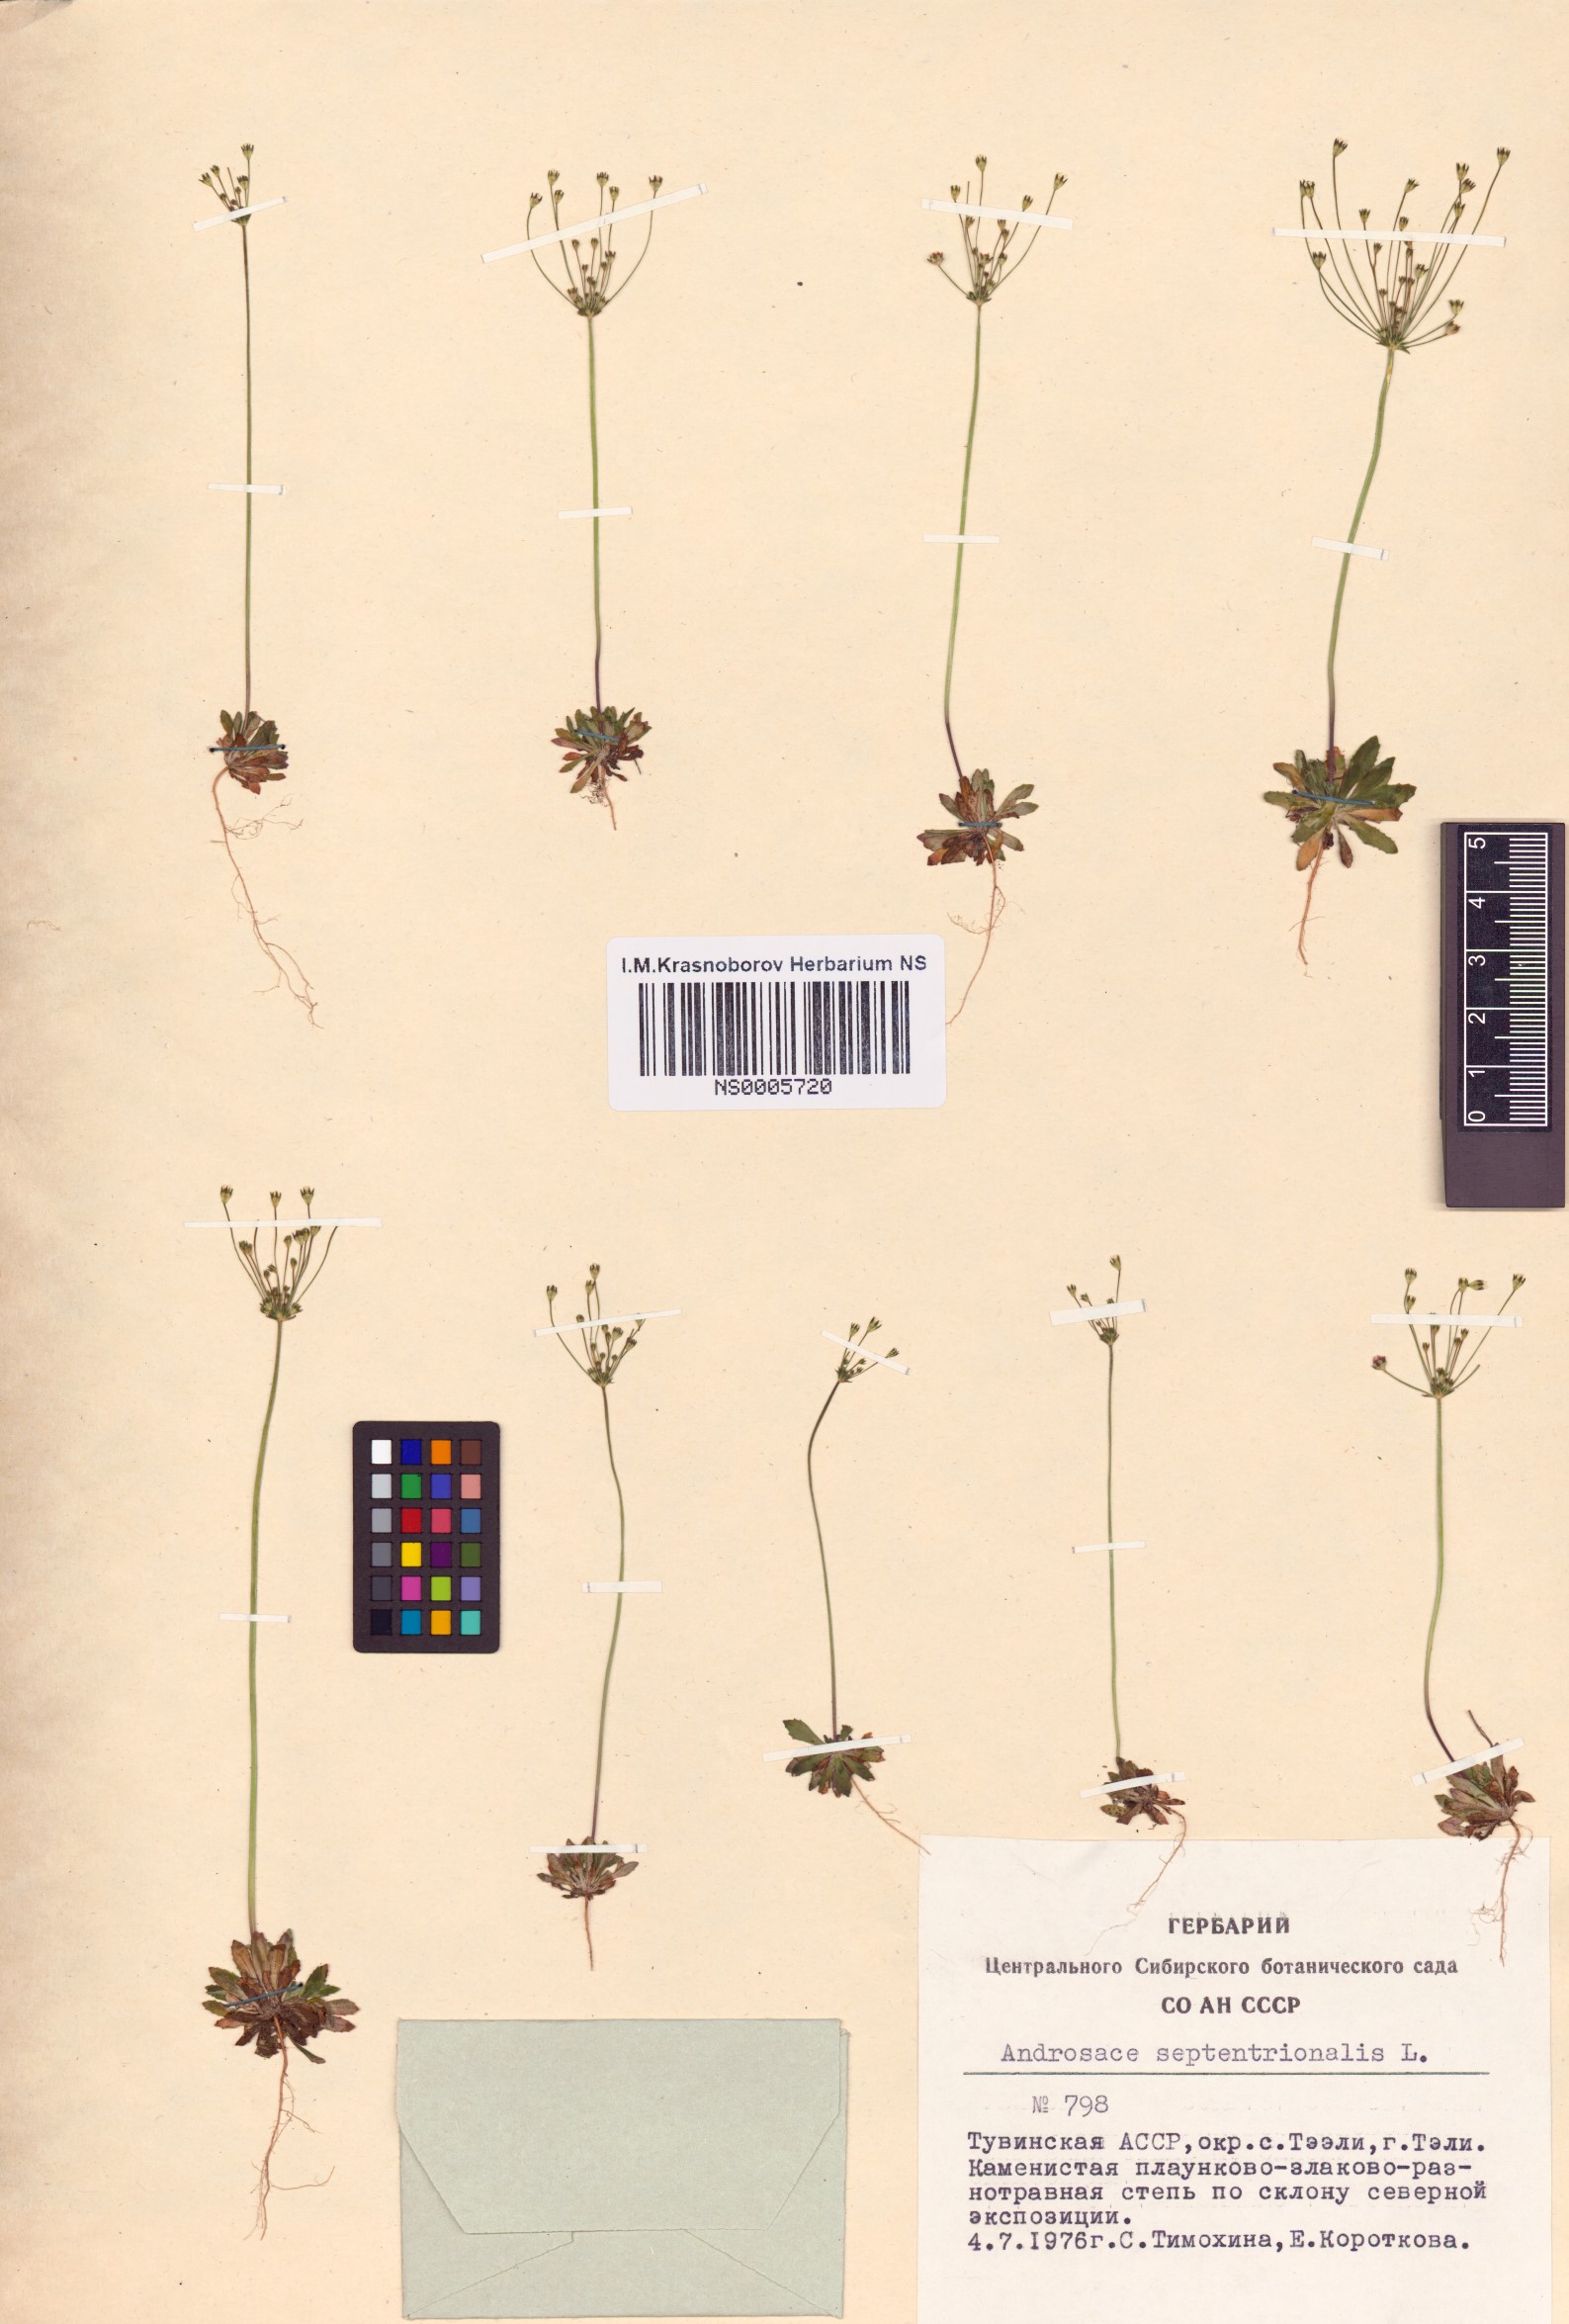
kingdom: Plantae
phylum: Tracheophyta
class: Magnoliopsida
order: Ericales
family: Primulaceae
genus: Androsace
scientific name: Androsace septentrionalis
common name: Hairy northern fairy-candelabra
